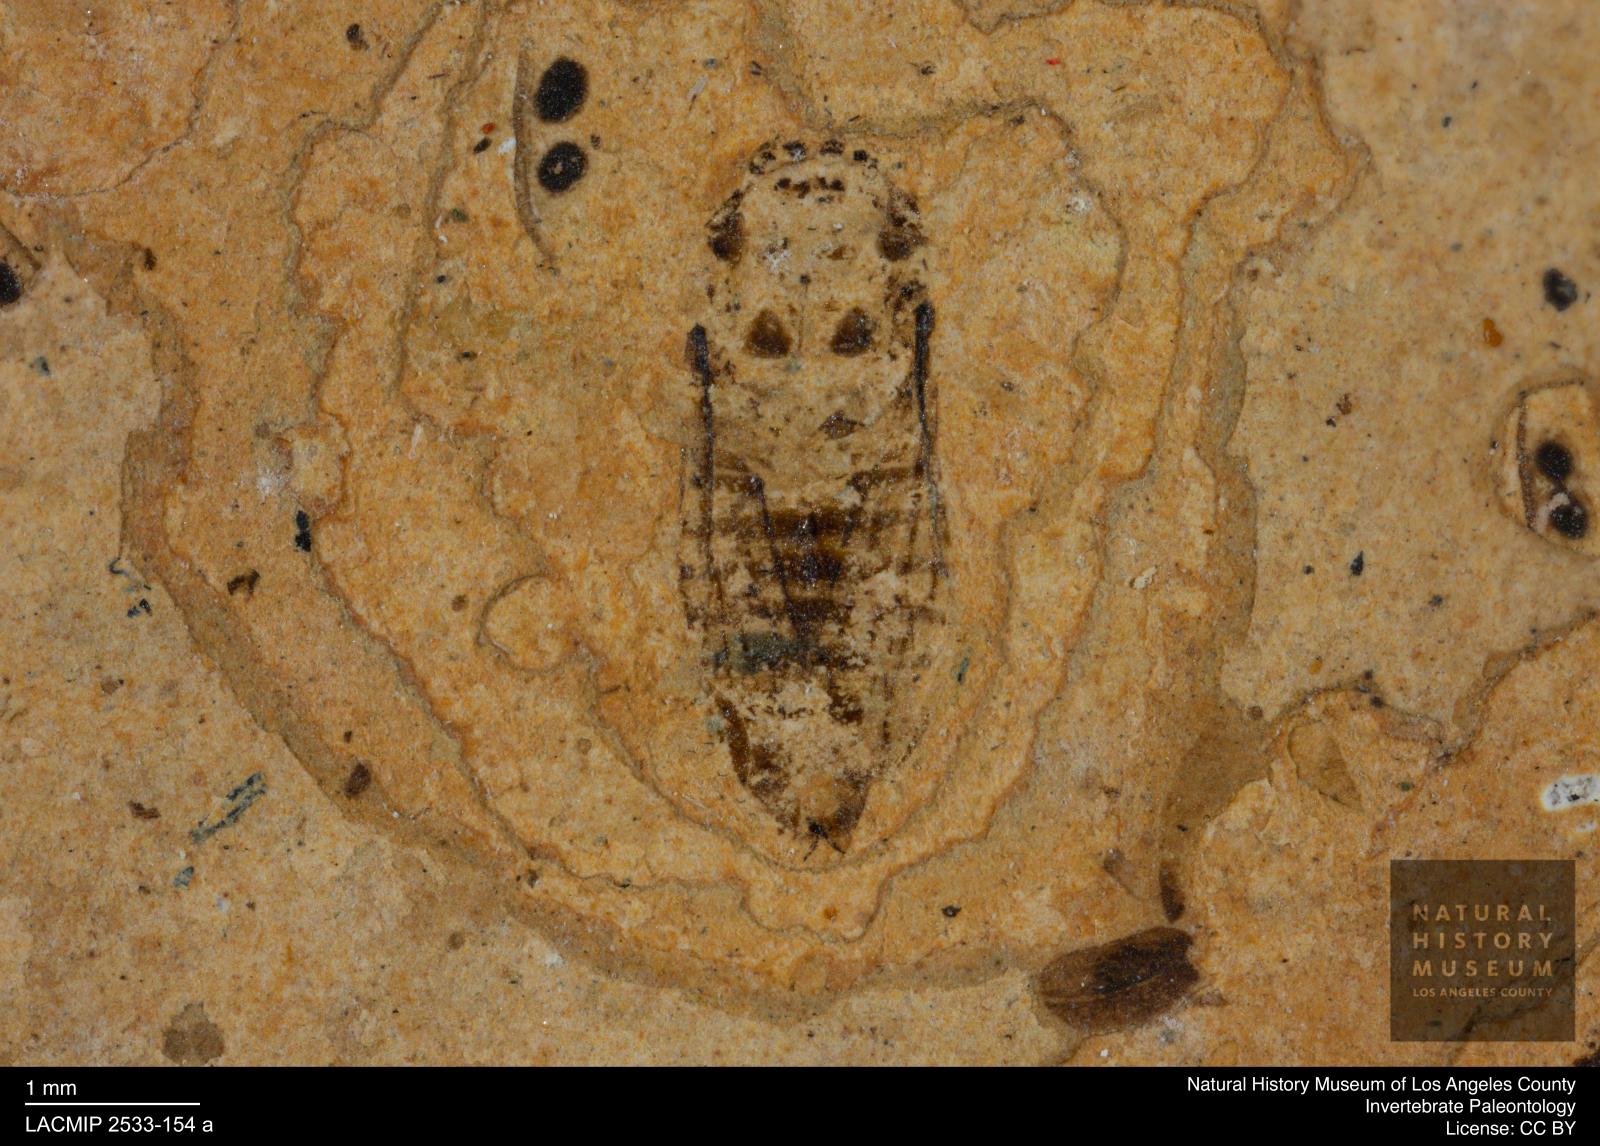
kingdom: Animalia
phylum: Arthropoda
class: Insecta
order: Hemiptera
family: Cicadellidae
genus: Iassus
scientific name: Iassus sepultus
